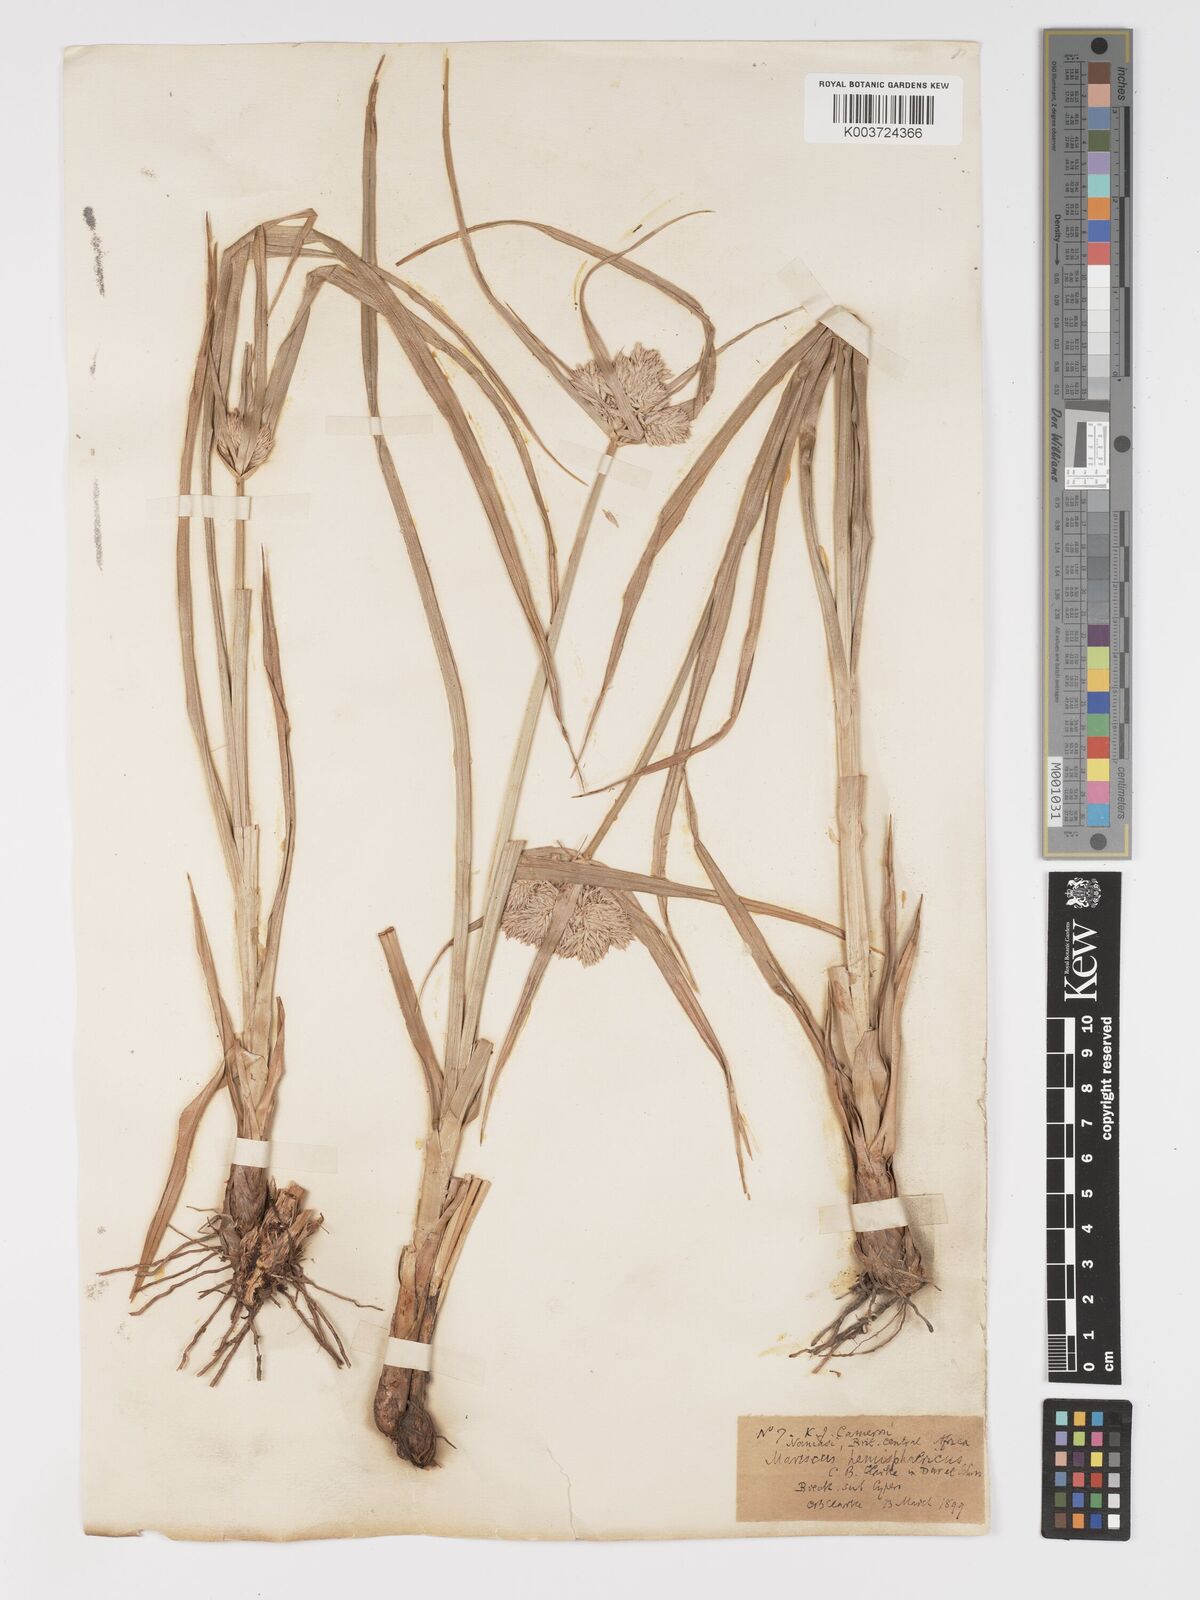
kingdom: Plantae
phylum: Tracheophyta
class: Liliopsida
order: Poales
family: Cyperaceae
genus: Cyperus
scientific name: Cyperus hemisphaericus
